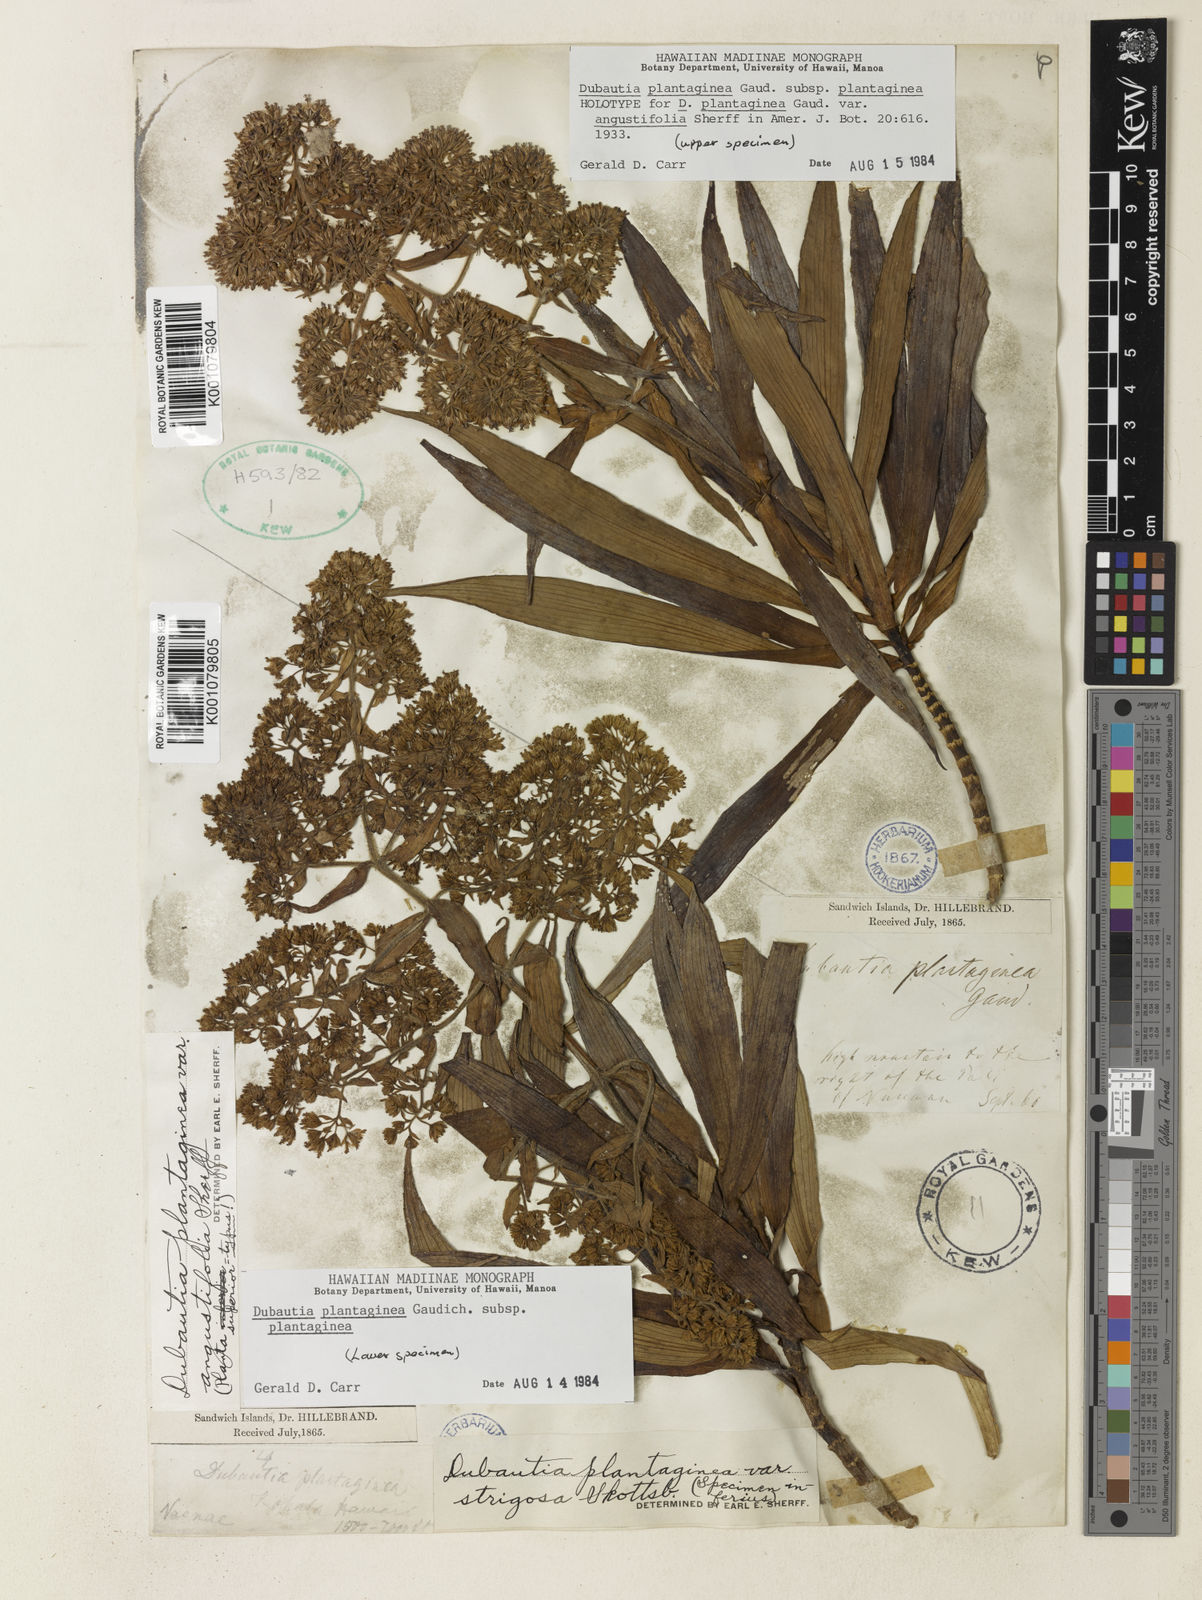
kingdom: Plantae
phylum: Tracheophyta
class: Magnoliopsida
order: Asterales
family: Asteraceae
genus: Dubautia
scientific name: Dubautia plantaginea
